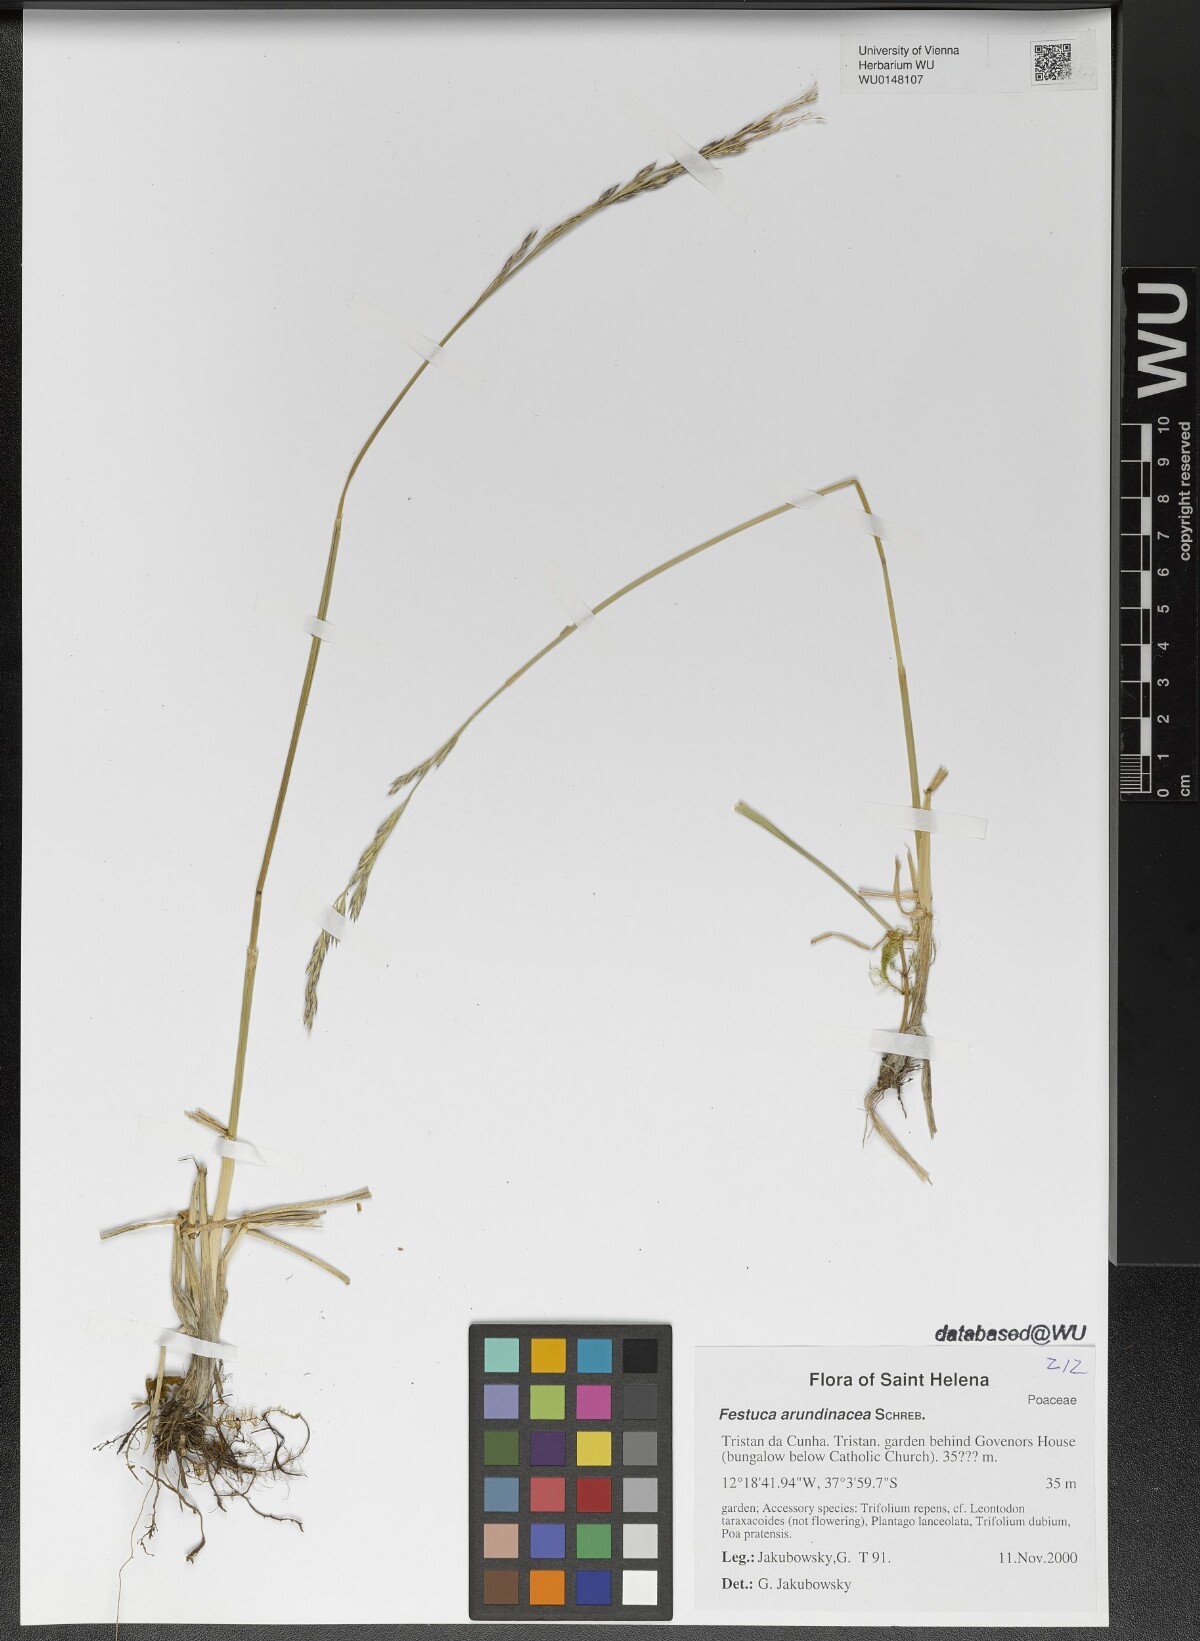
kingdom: Plantae
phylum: Tracheophyta
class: Liliopsida
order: Poales
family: Poaceae
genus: Lolium
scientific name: Lolium arundinaceum
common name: Reed fescue
